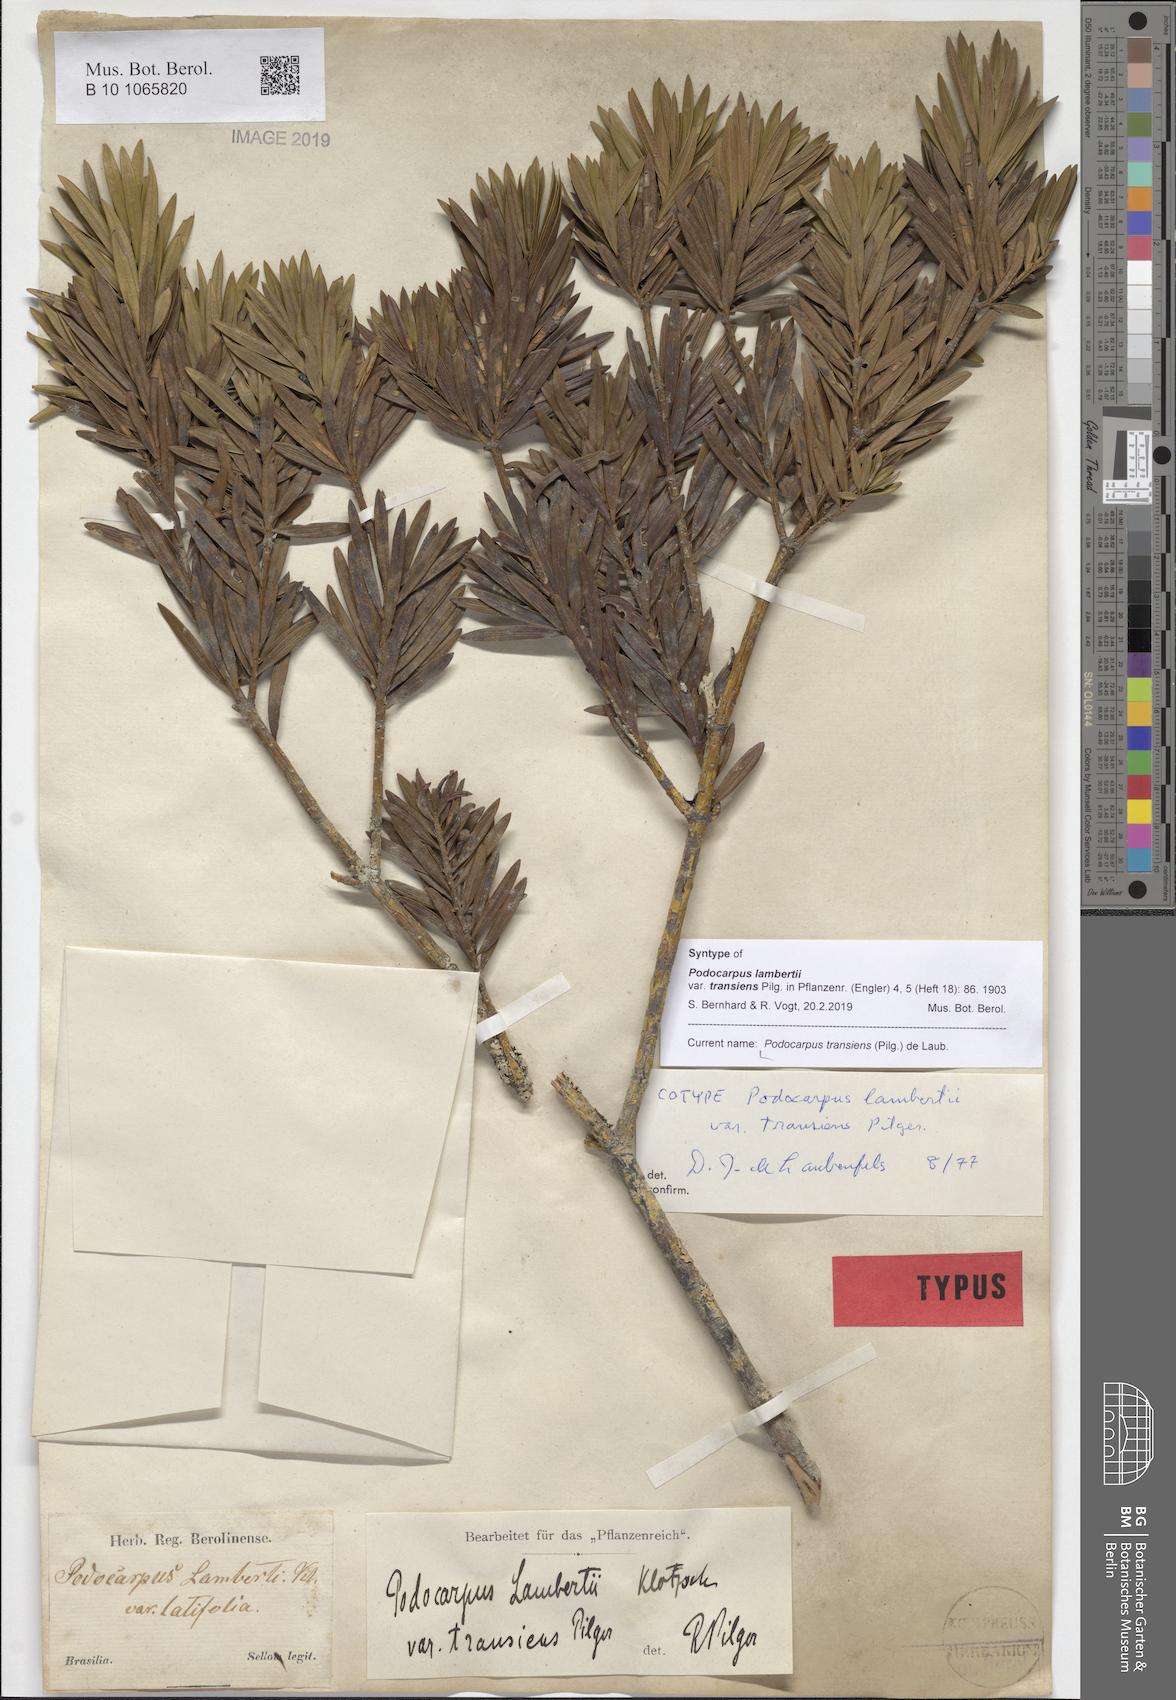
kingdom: Plantae
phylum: Tracheophyta
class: Pinopsida
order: Pinales
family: Podocarpaceae
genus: Podocarpus
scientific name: Podocarpus transiens
